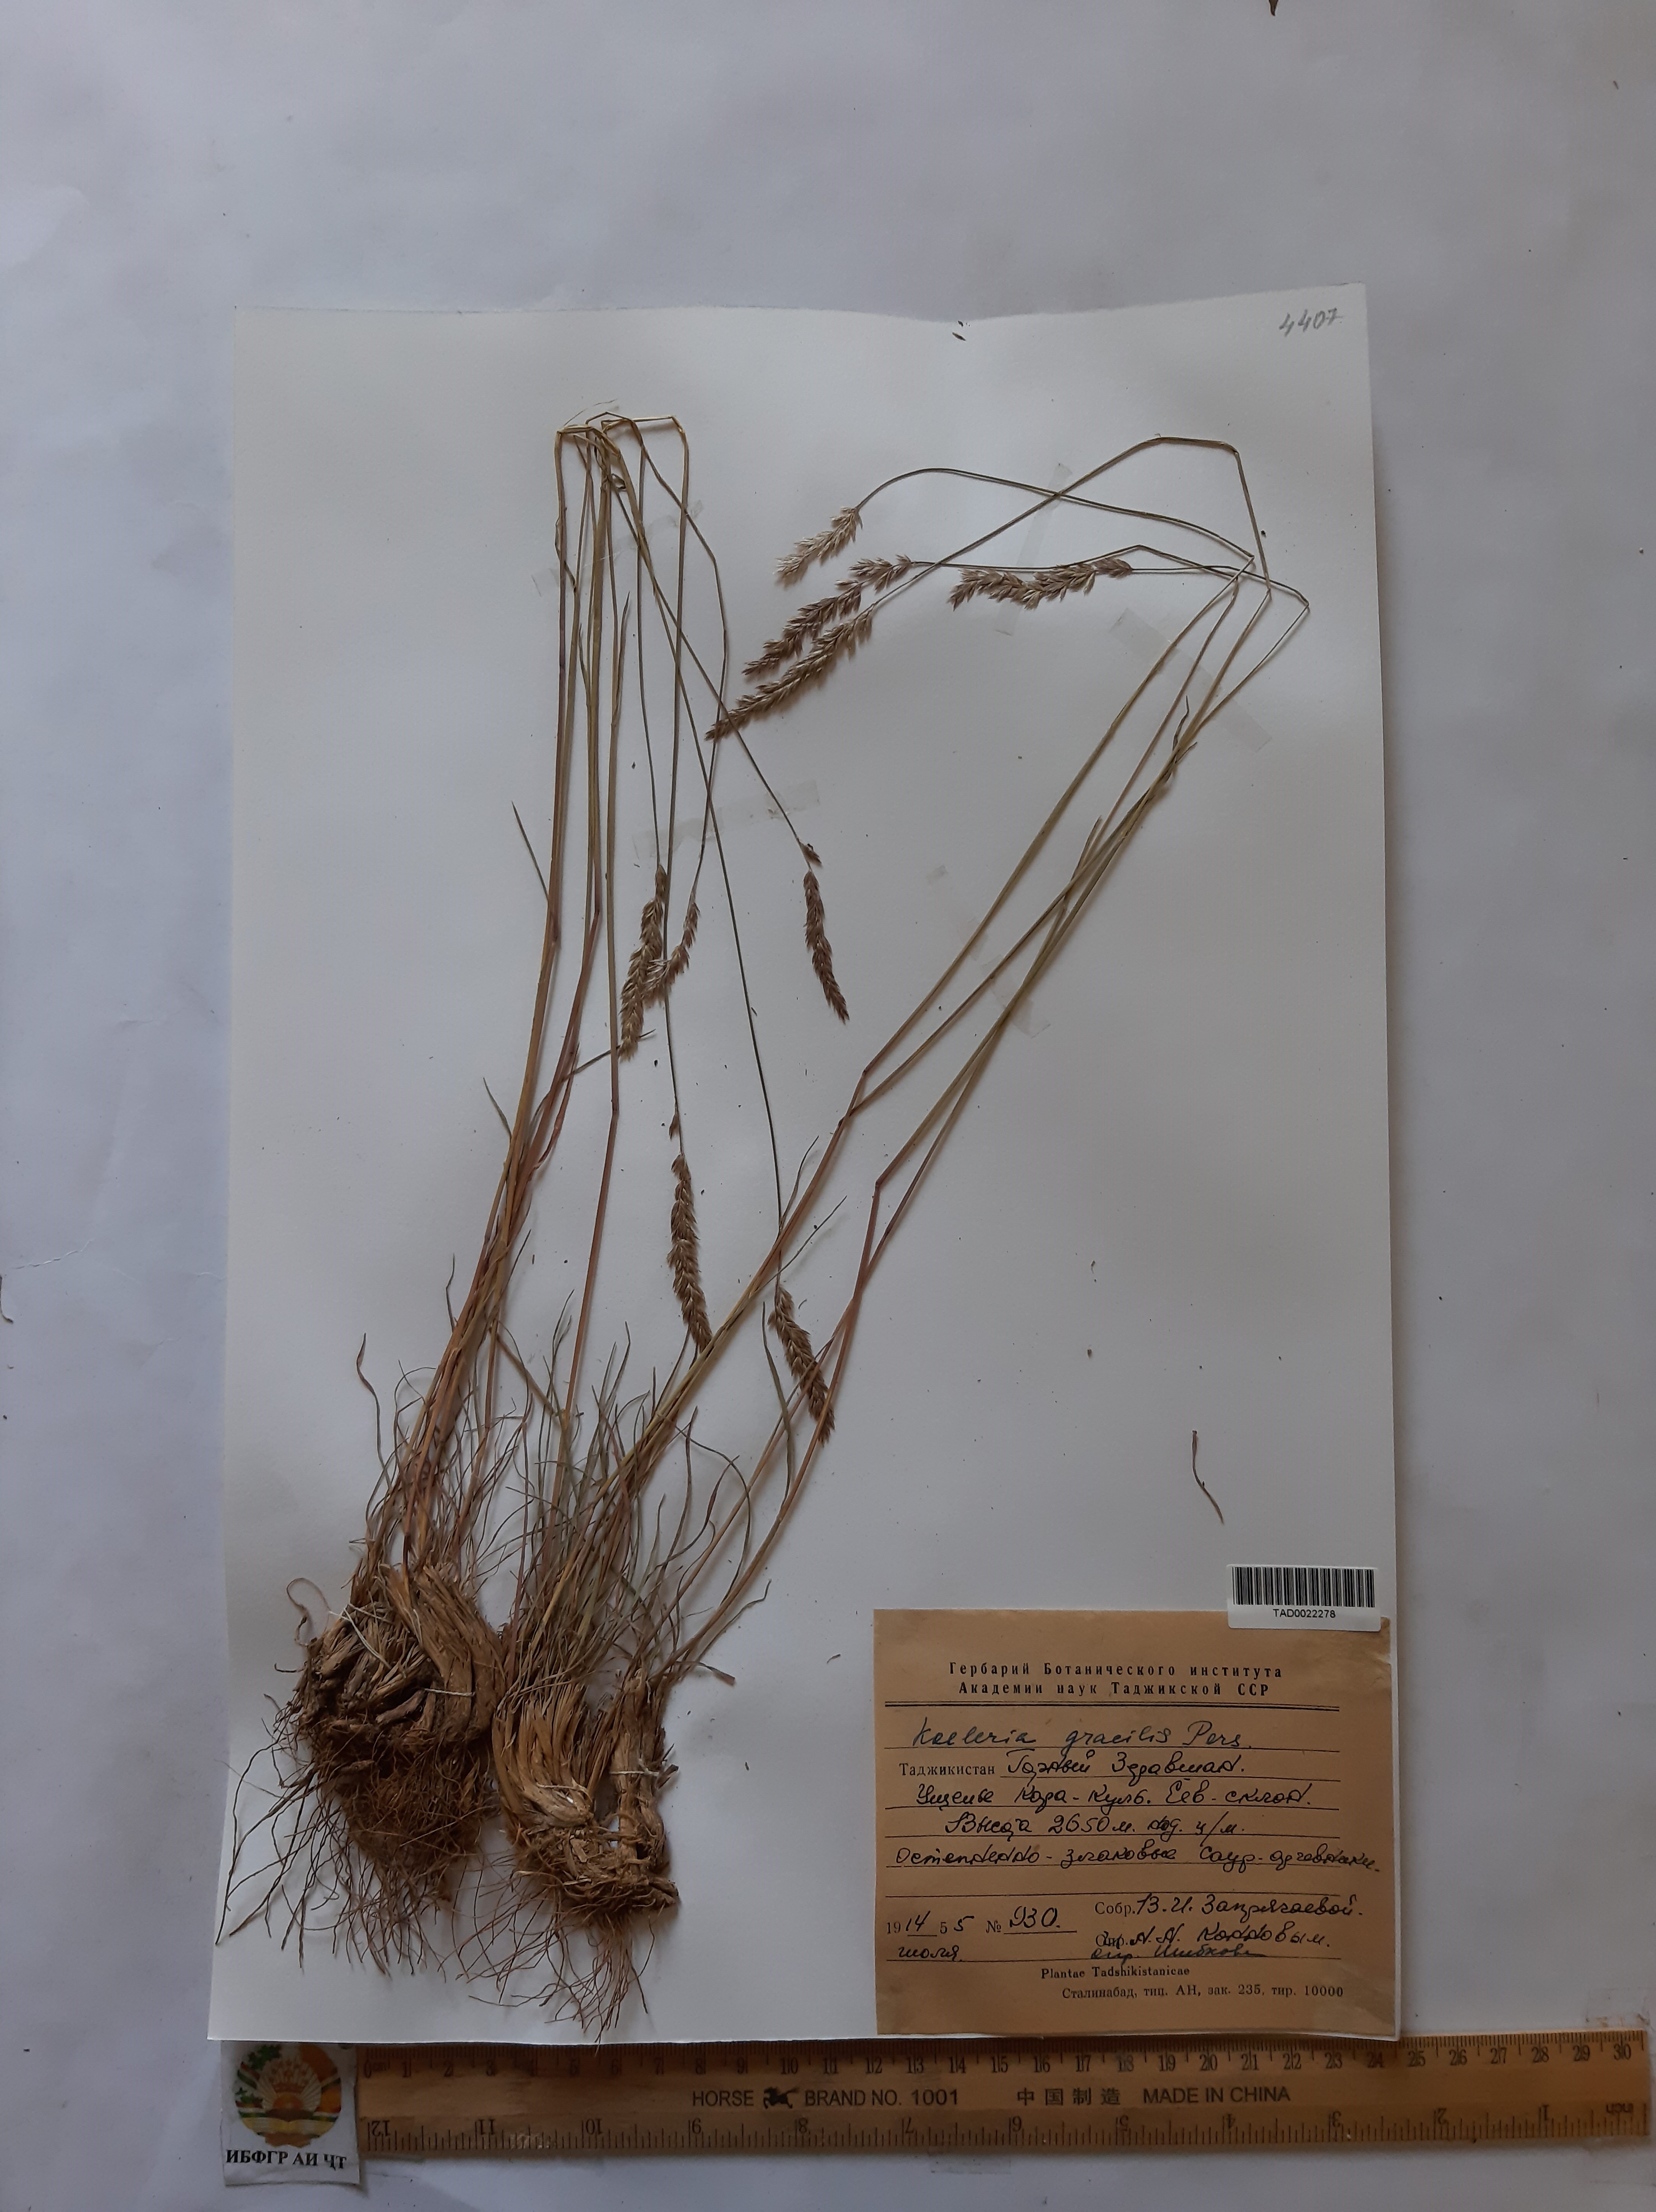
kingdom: Plantae
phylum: Tracheophyta
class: Liliopsida
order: Poales
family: Poaceae
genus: Koeleria
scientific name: Koeleria macrantha
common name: Crested hair-grass
